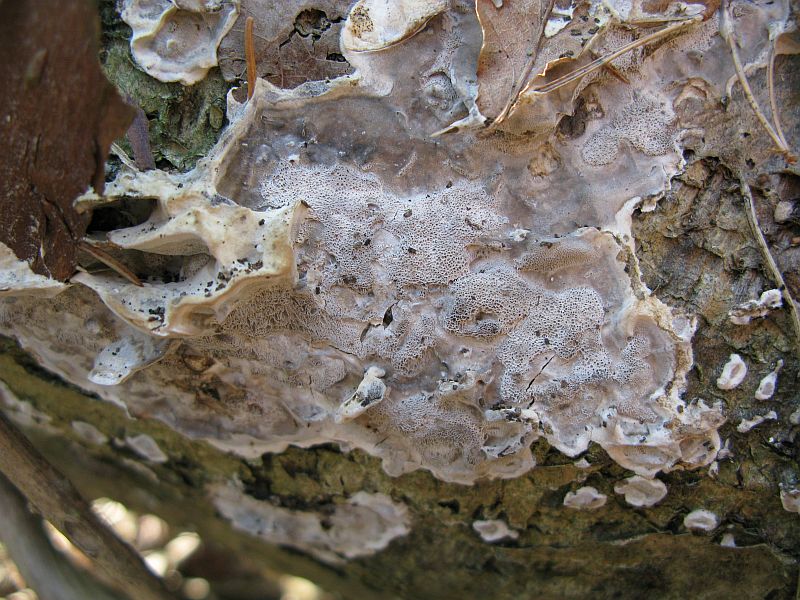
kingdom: Fungi
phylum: Basidiomycota
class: Agaricomycetes
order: Polyporales
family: Phanerochaetaceae
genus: Bjerkandera
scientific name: Bjerkandera adusta
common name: sveden sodporesvamp
